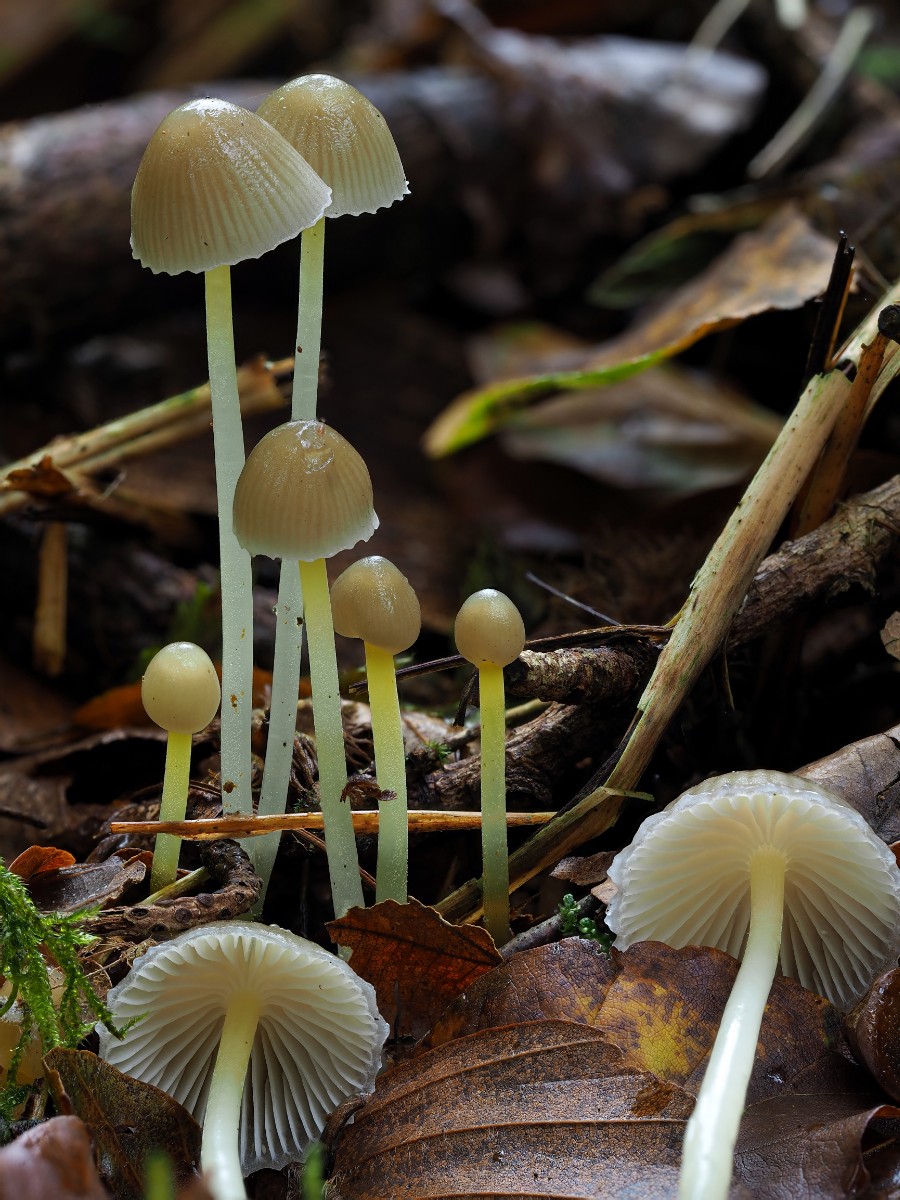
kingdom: Fungi
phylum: Basidiomycota
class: Agaricomycetes
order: Agaricales
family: Mycenaceae
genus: Mycena
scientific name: Mycena epipterygia
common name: gulstokket huesvamp
